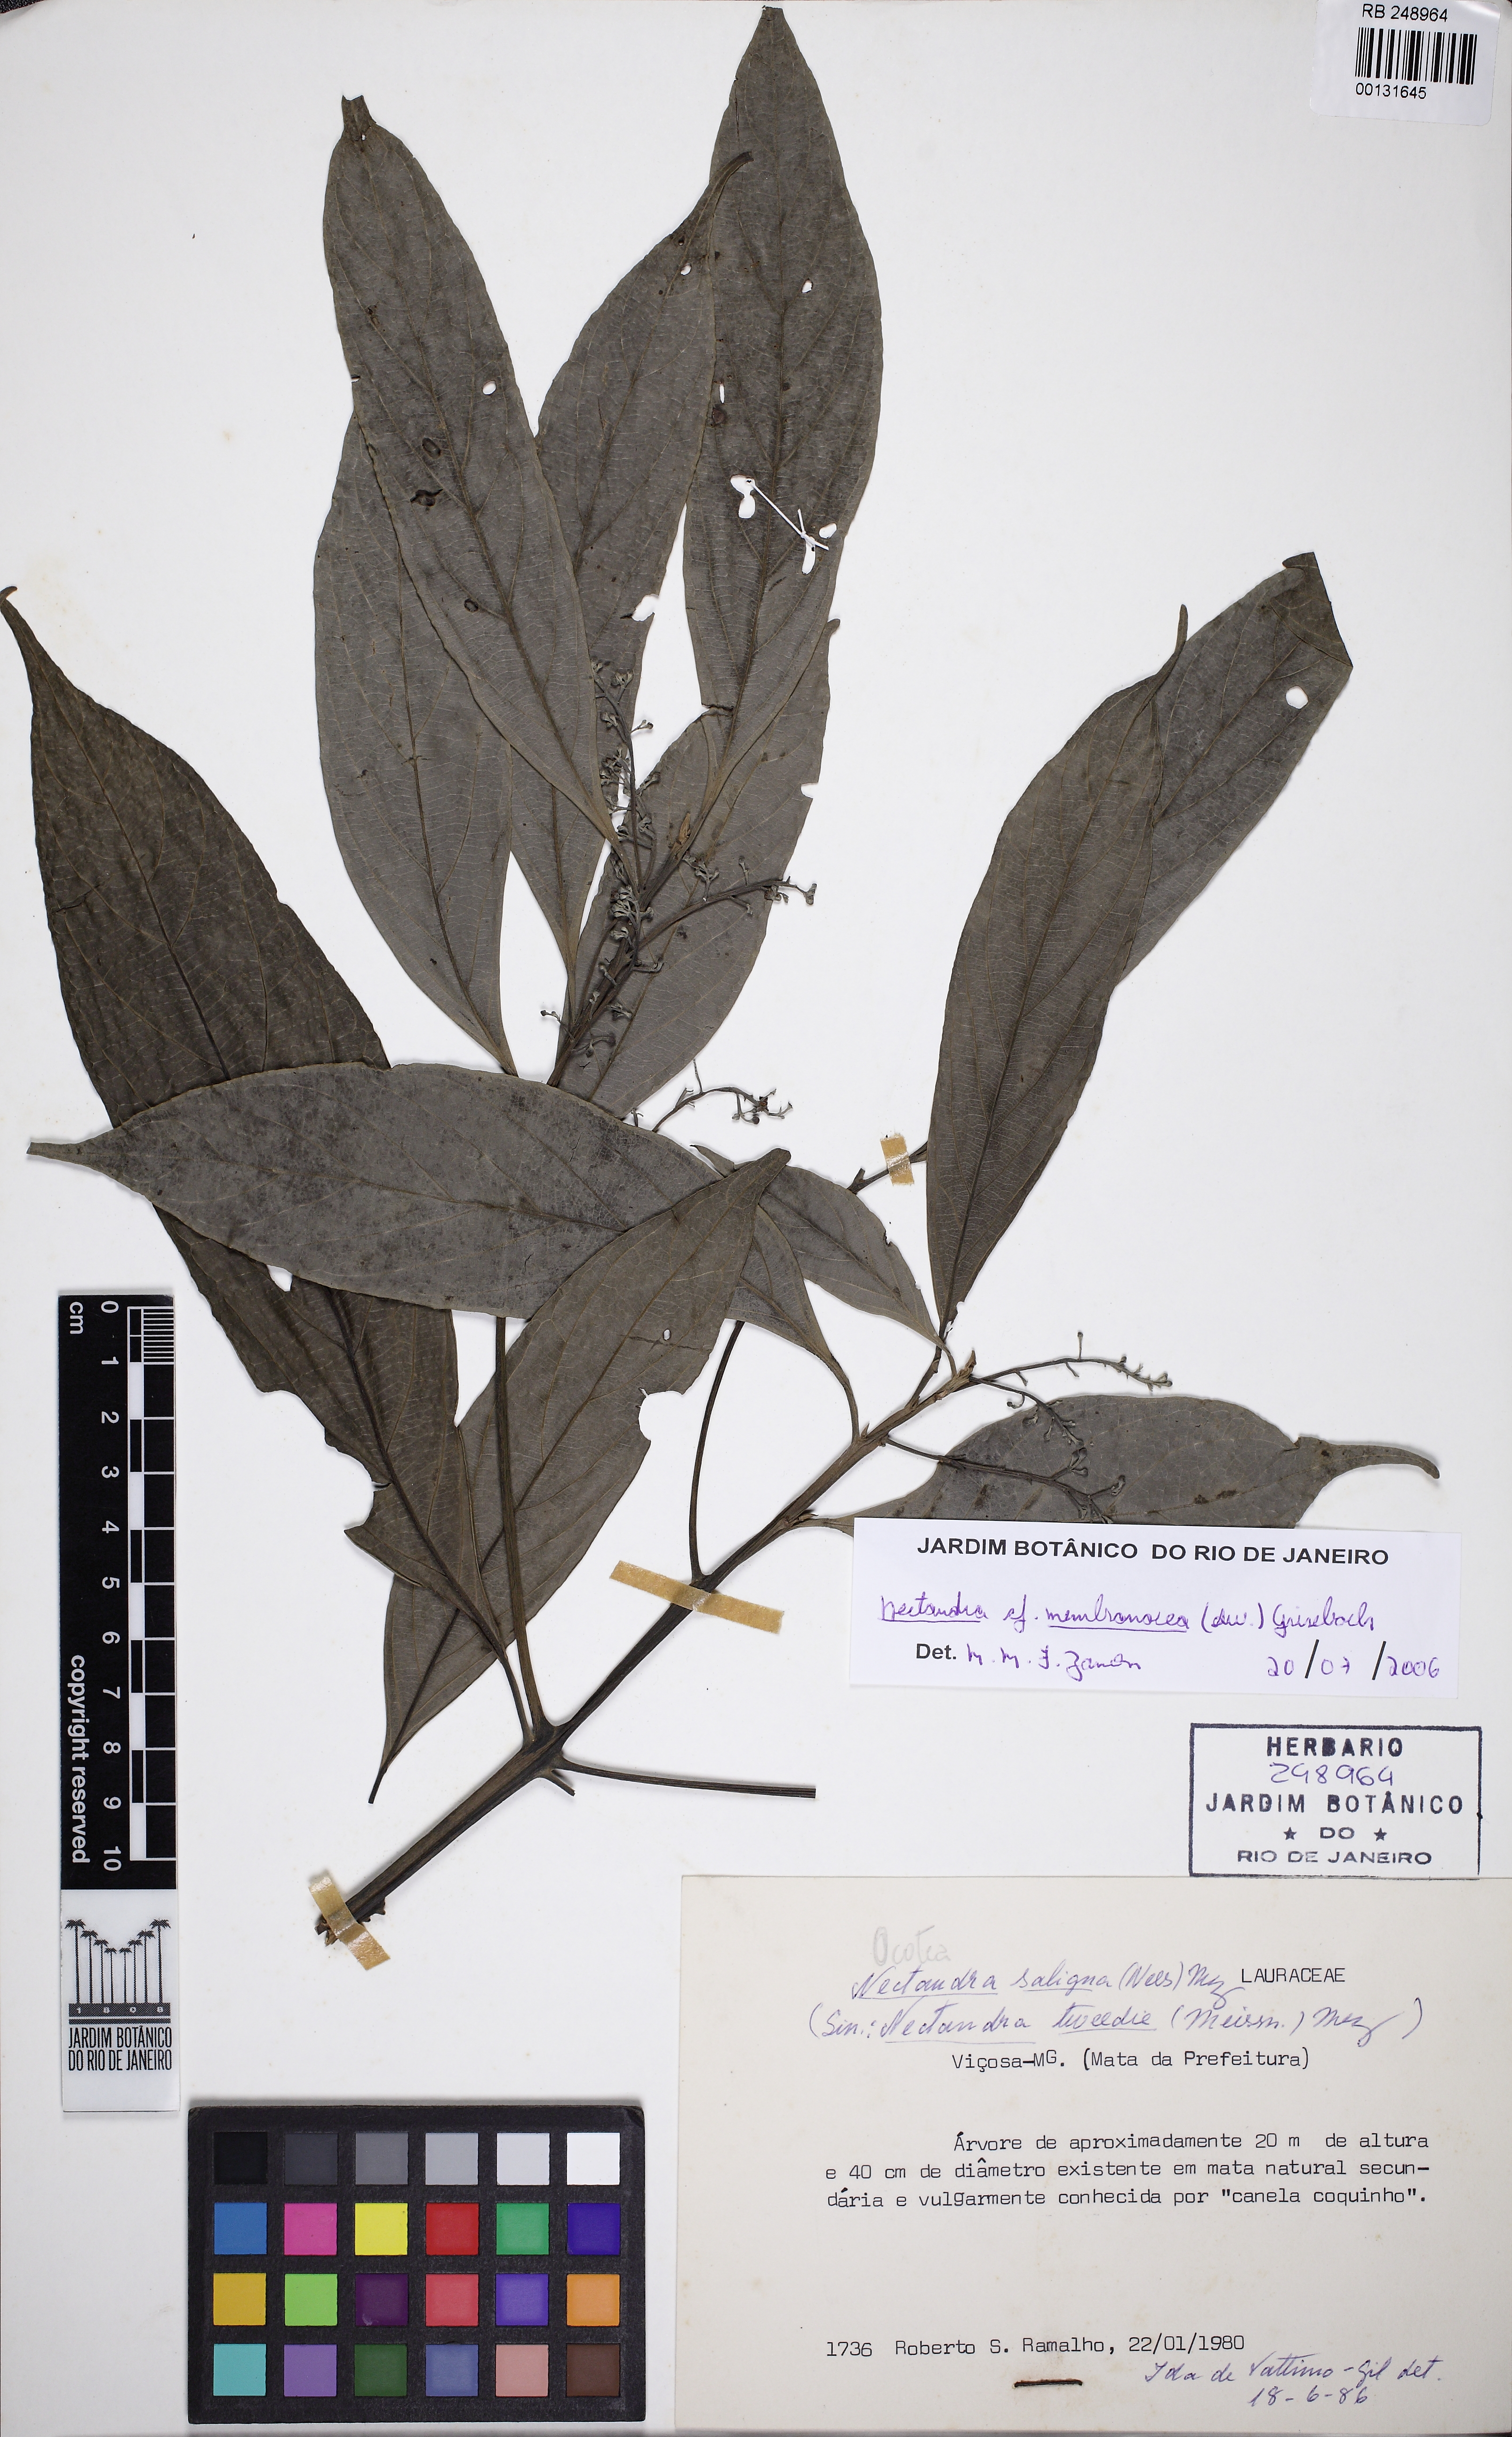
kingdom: Plantae
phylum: Tracheophyta
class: Magnoliopsida
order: Laurales
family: Lauraceae
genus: Nectandra
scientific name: Nectandra membranacea
